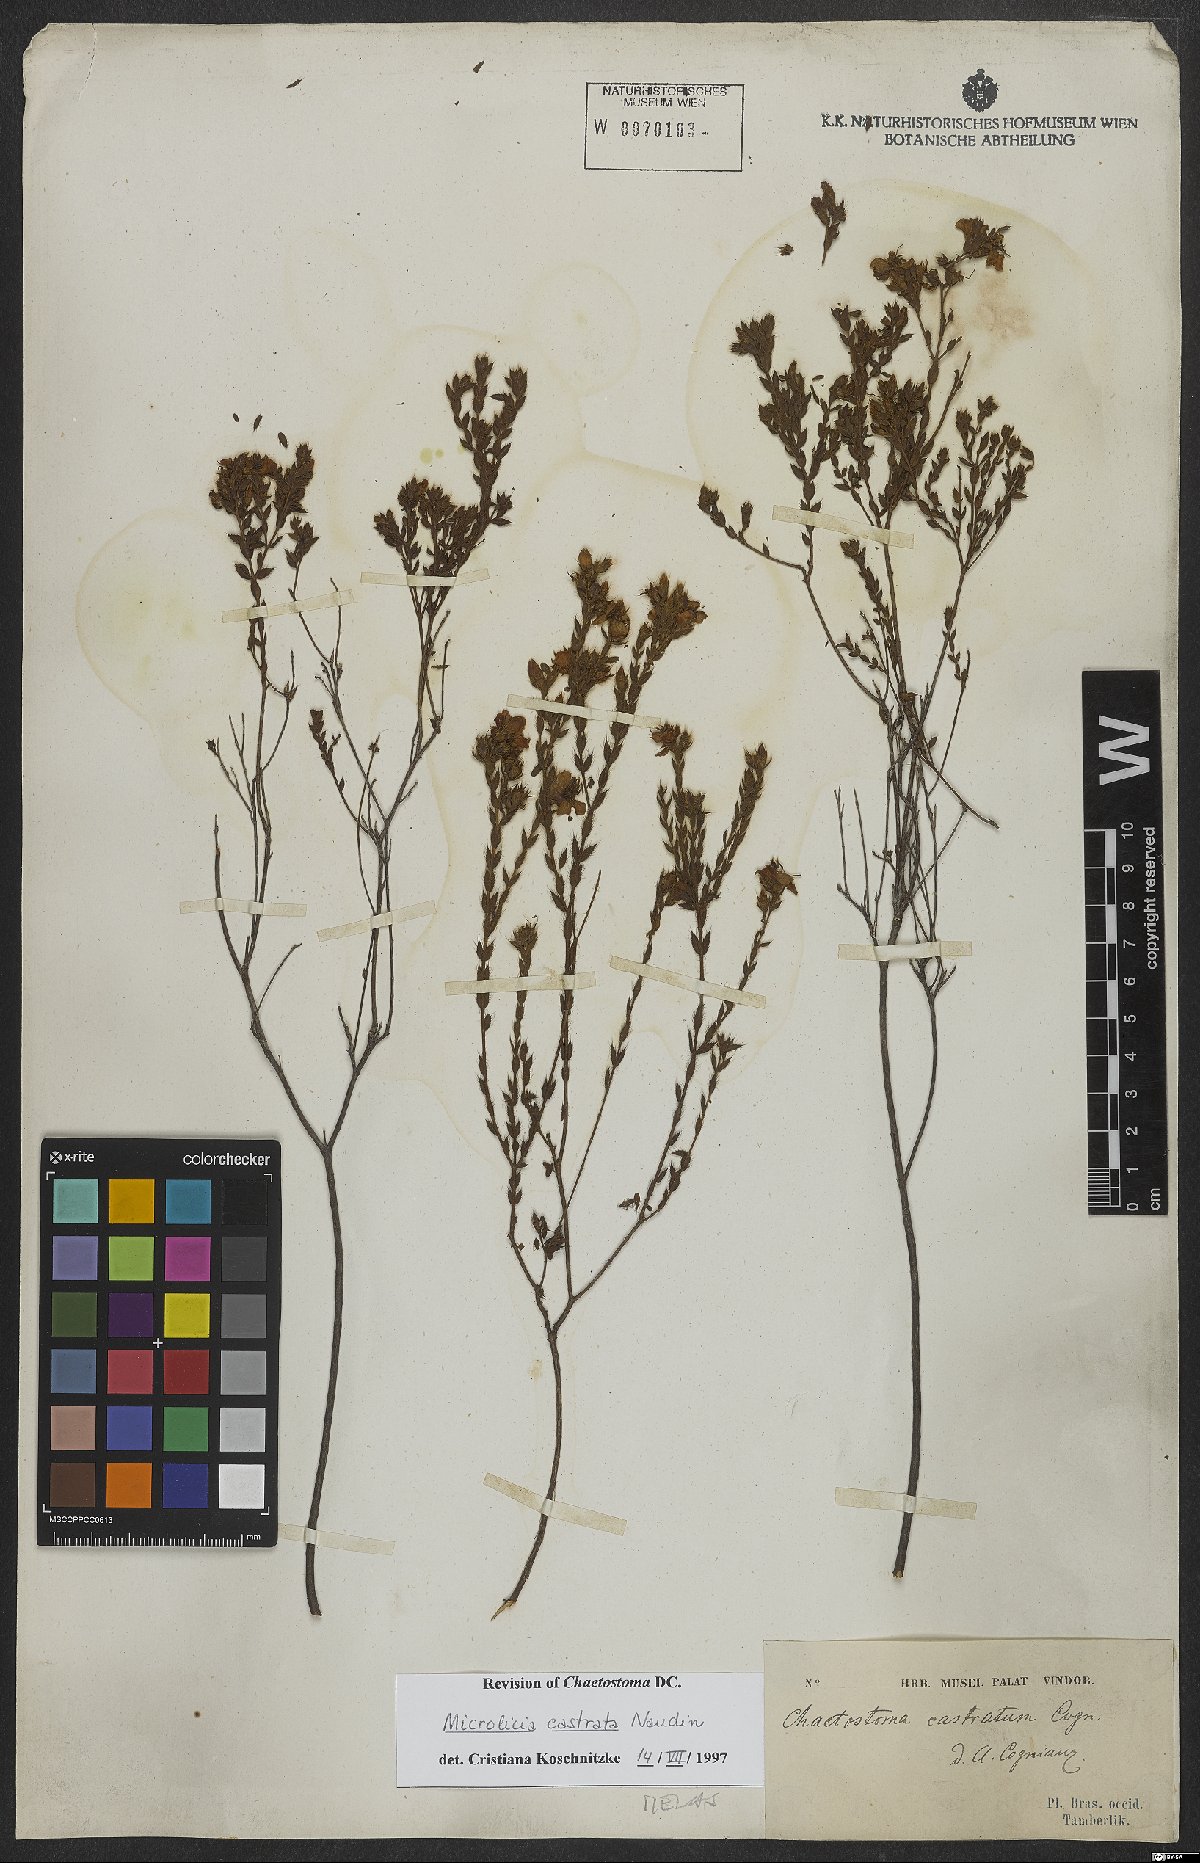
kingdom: Plantae
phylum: Tracheophyta
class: Magnoliopsida
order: Myrtales
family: Melastomataceae
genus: Microlicia
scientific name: Microlicia castrata
